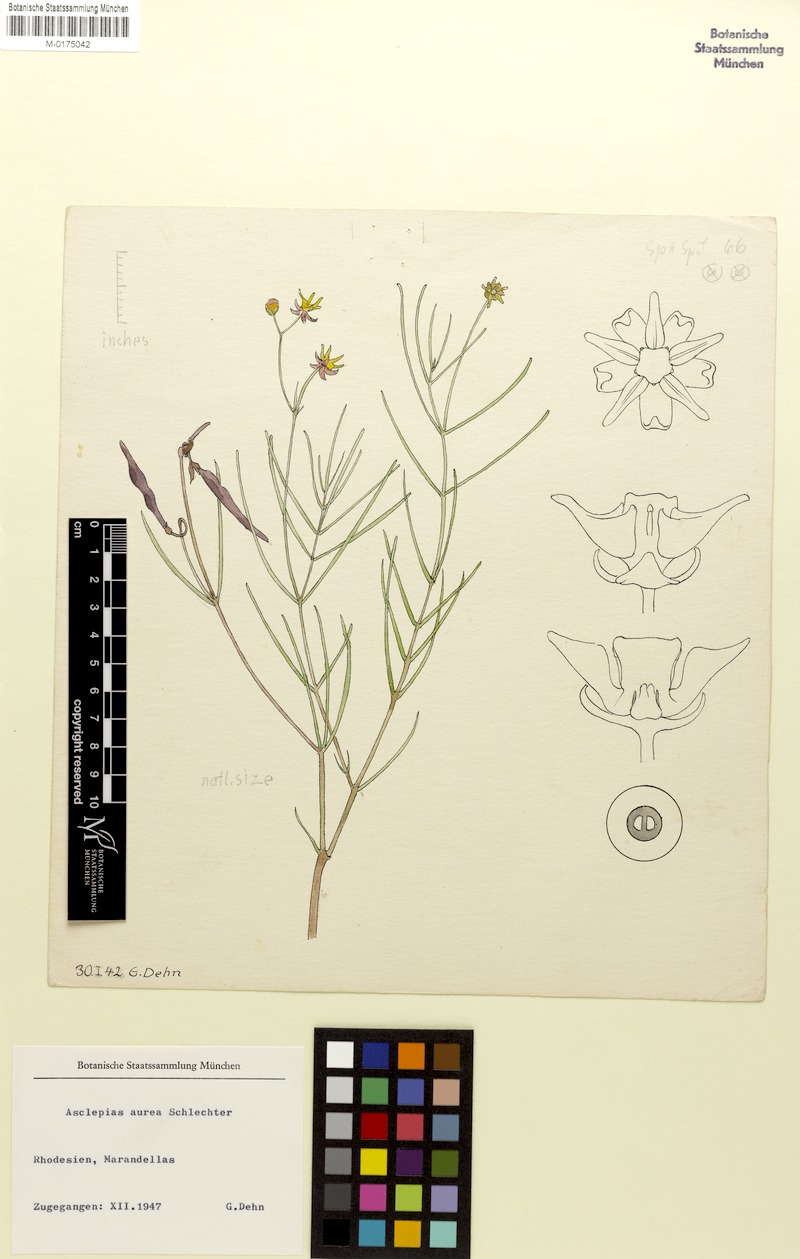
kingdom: Plantae
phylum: Tracheophyta
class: Magnoliopsida
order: Gentianales
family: Apocynaceae
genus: Asclepias
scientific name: Asclepias aurea
